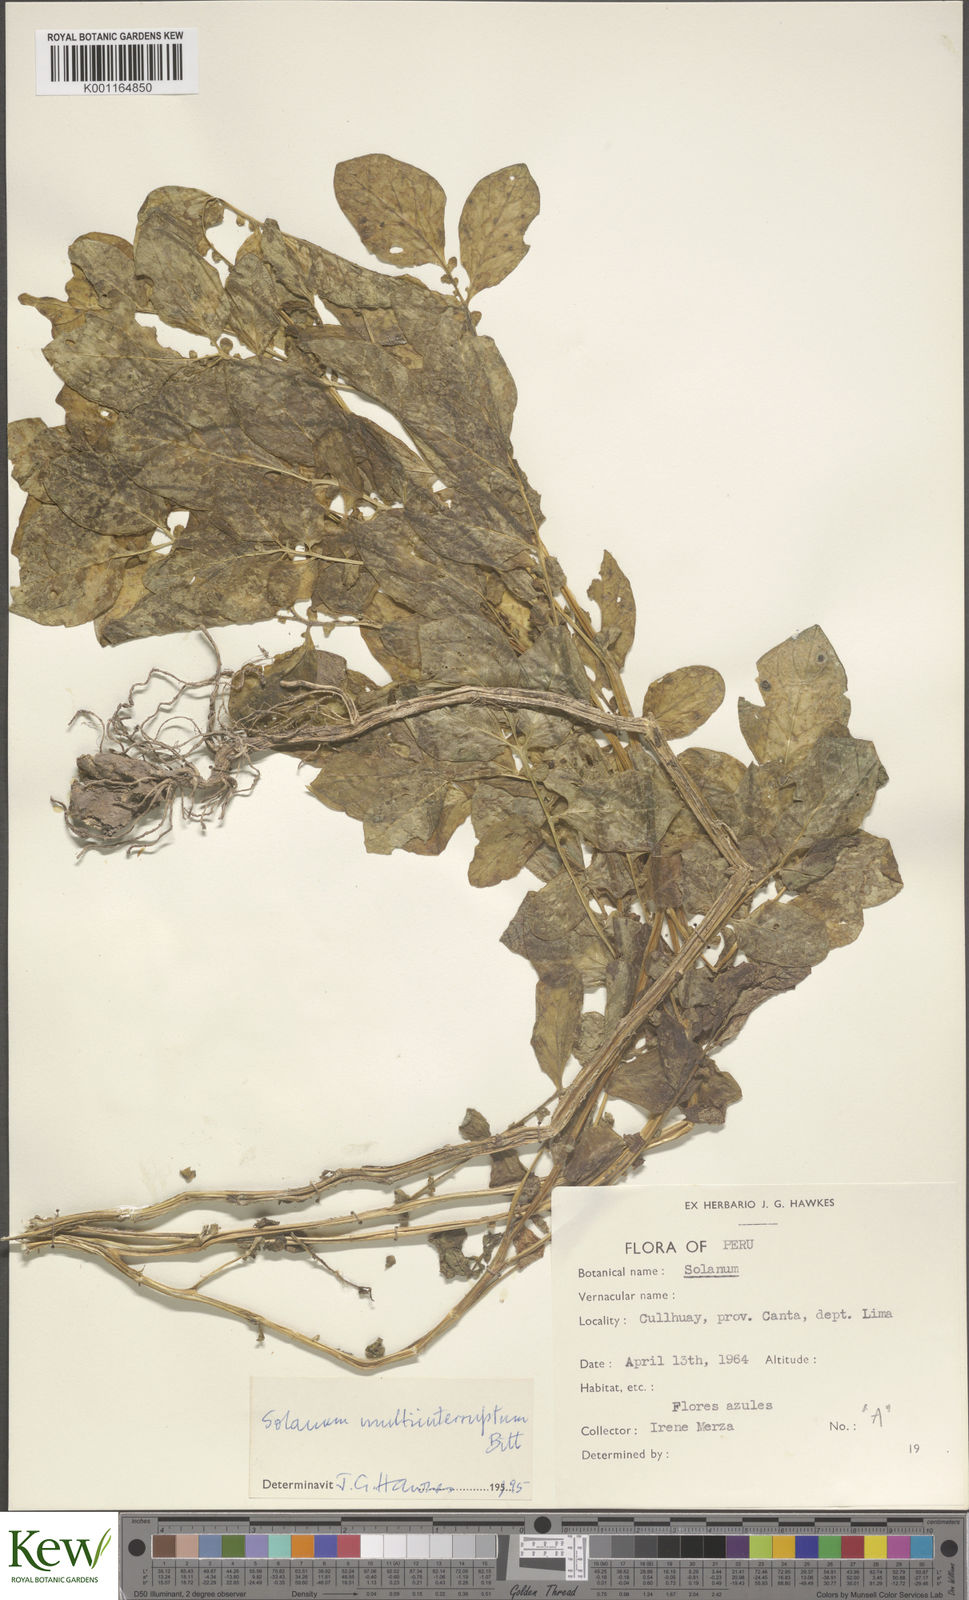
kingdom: Plantae
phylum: Tracheophyta
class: Magnoliopsida
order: Solanales
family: Solanaceae
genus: Solanum
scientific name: Solanum multiinterruptum
